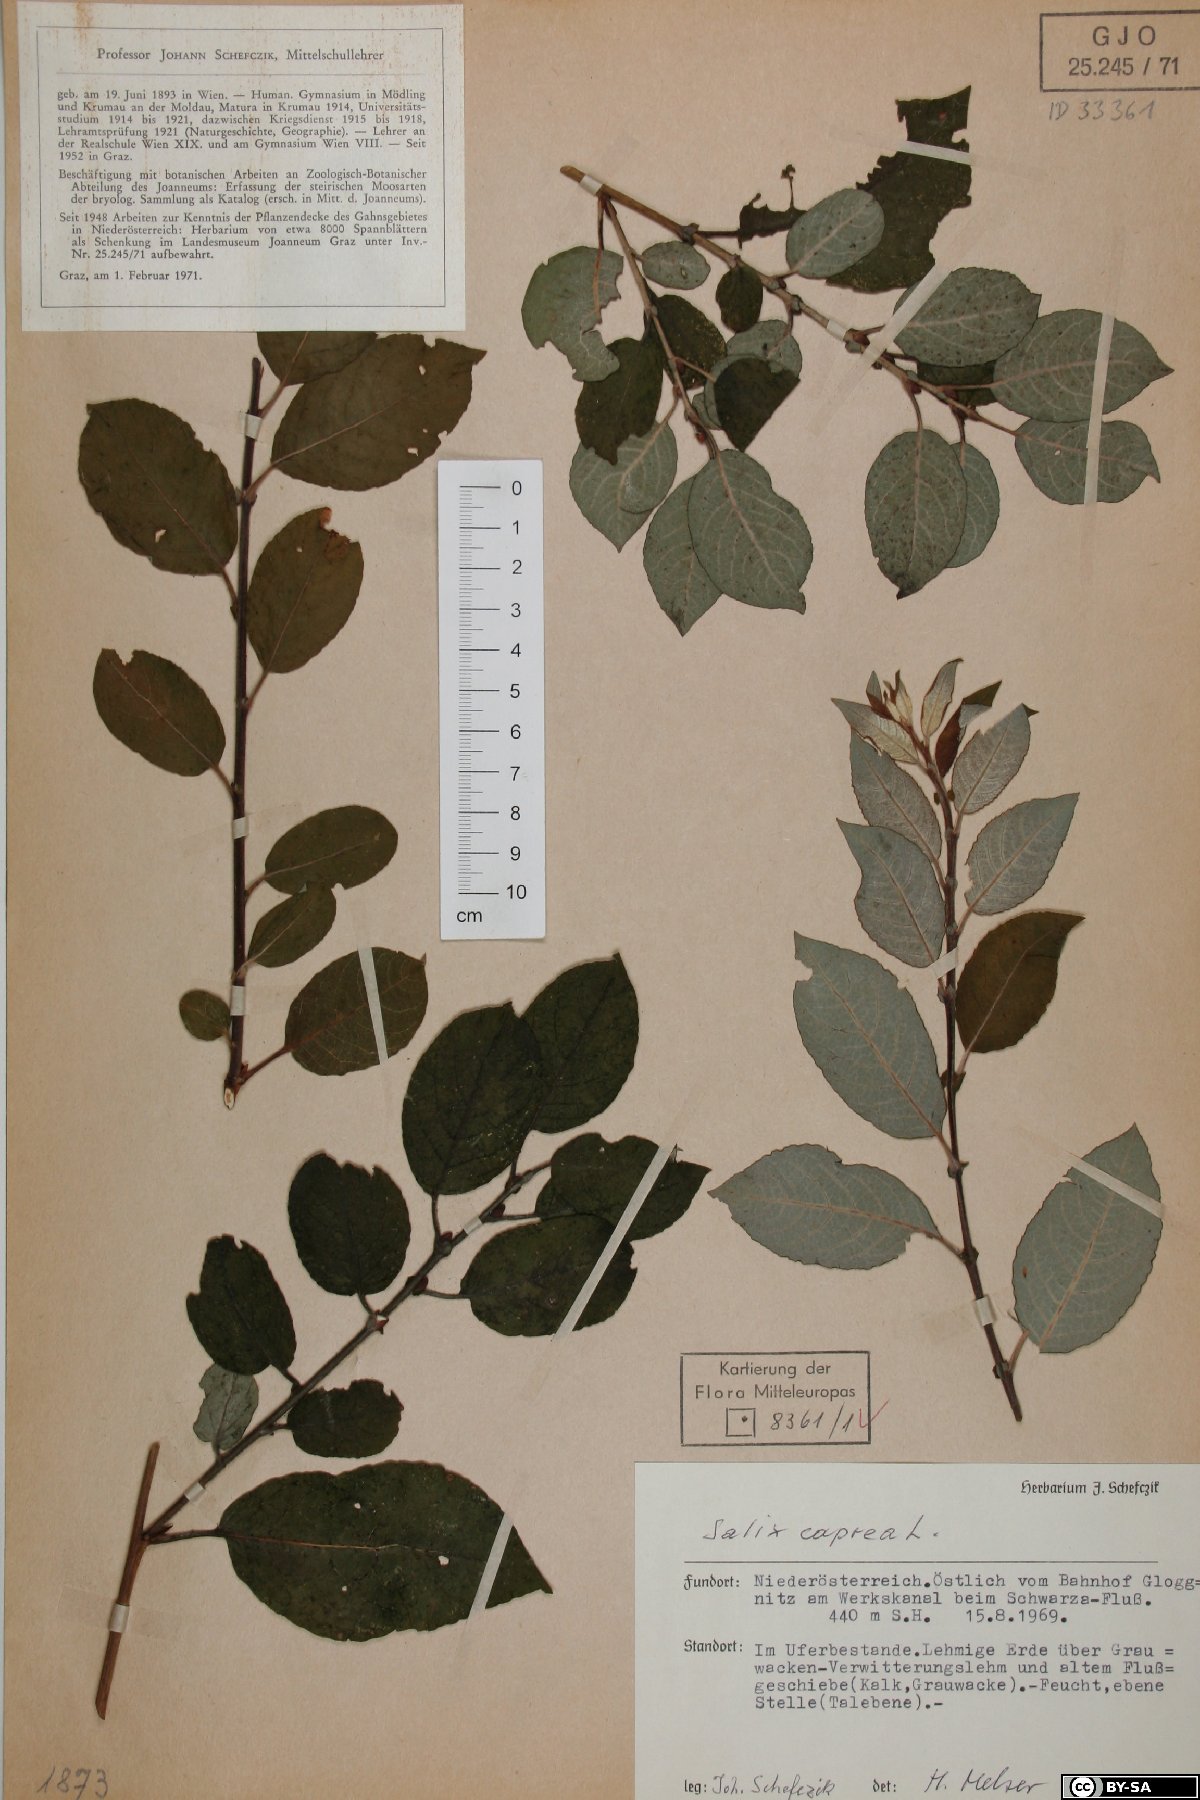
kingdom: Plantae
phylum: Tracheophyta
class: Magnoliopsida
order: Malpighiales
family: Salicaceae
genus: Salix
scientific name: Salix caprea
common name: Goat willow
